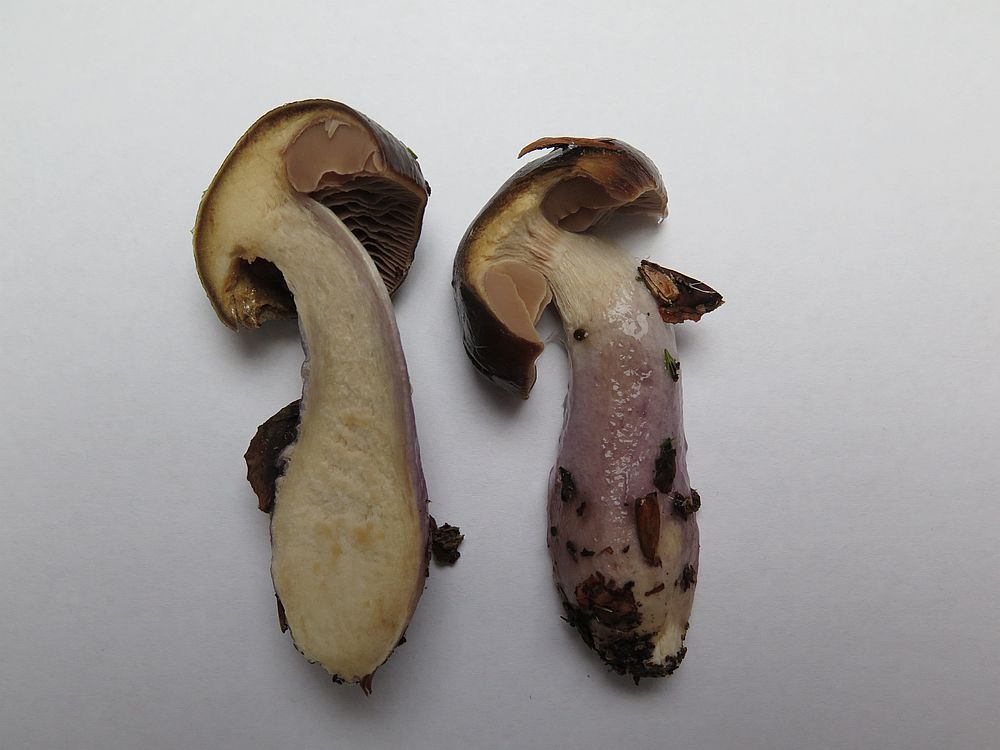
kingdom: Fungi
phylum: Basidiomycota
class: Agaricomycetes
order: Agaricales
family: Cortinariaceae
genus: Cortinarius
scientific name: Cortinarius
